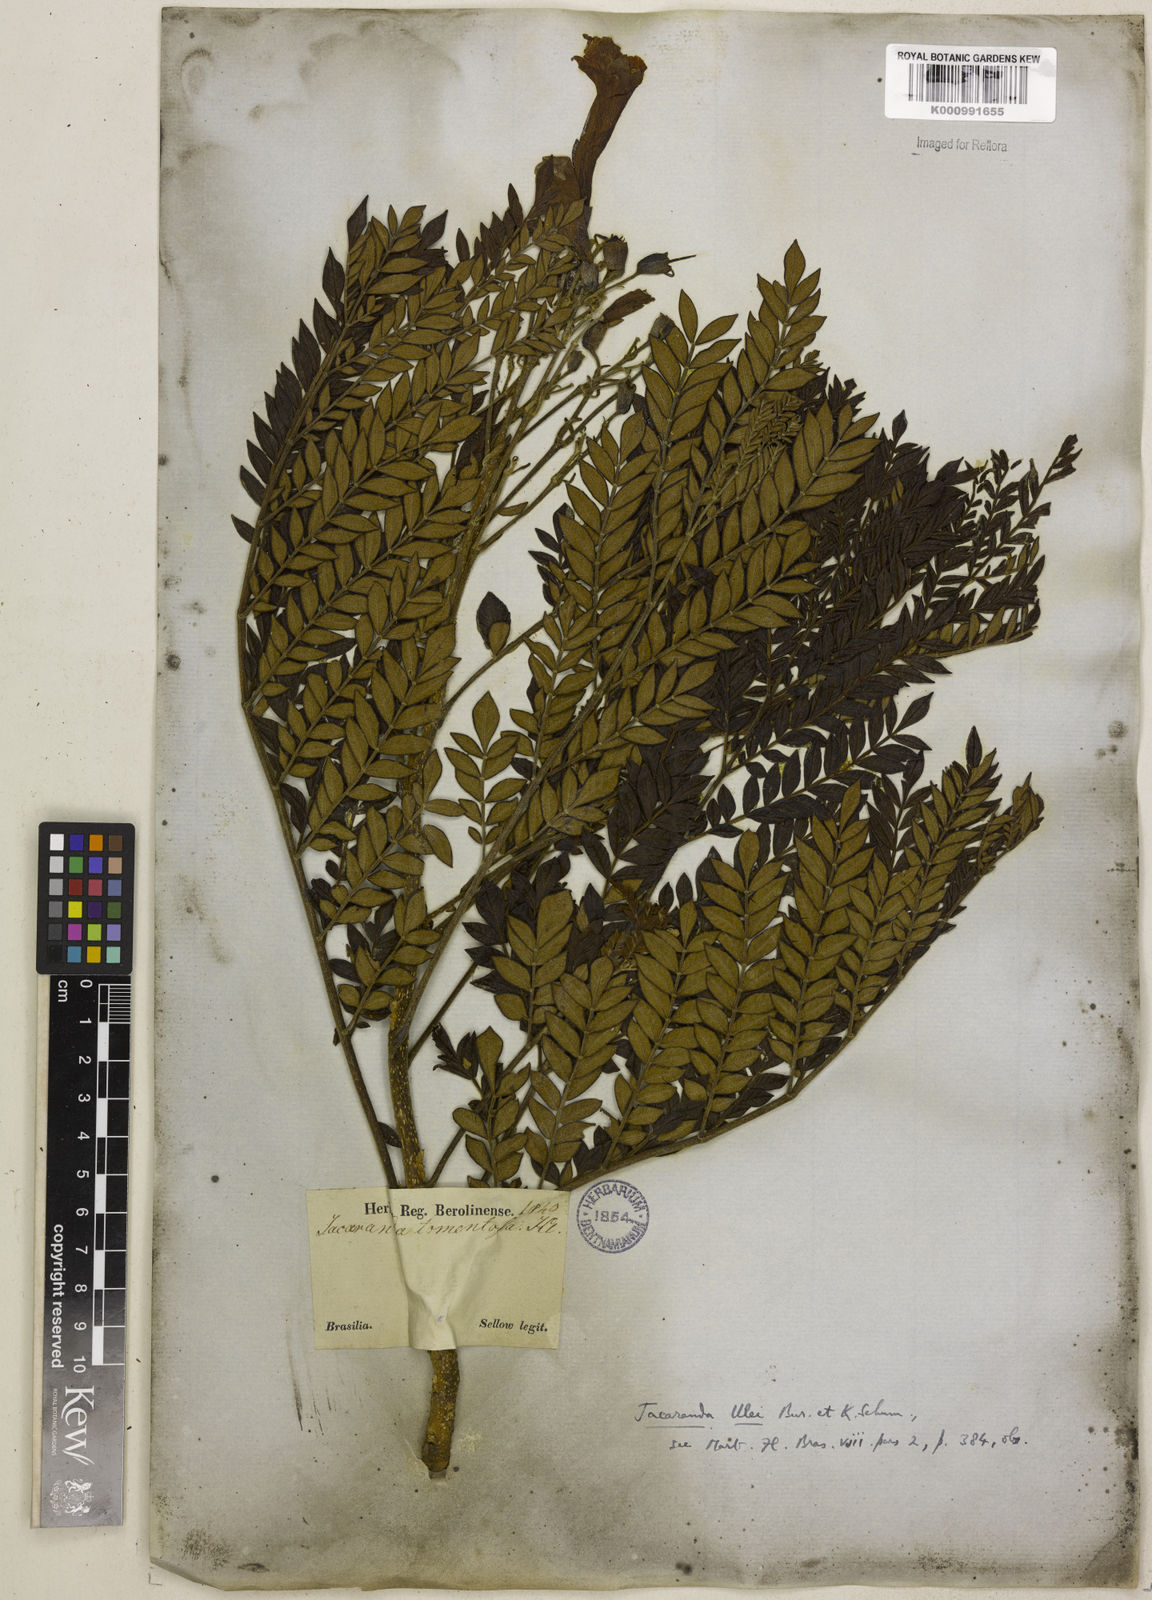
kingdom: Plantae
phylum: Tracheophyta
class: Magnoliopsida
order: Lamiales
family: Bignoniaceae
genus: Jacaranda
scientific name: Jacaranda ulei
